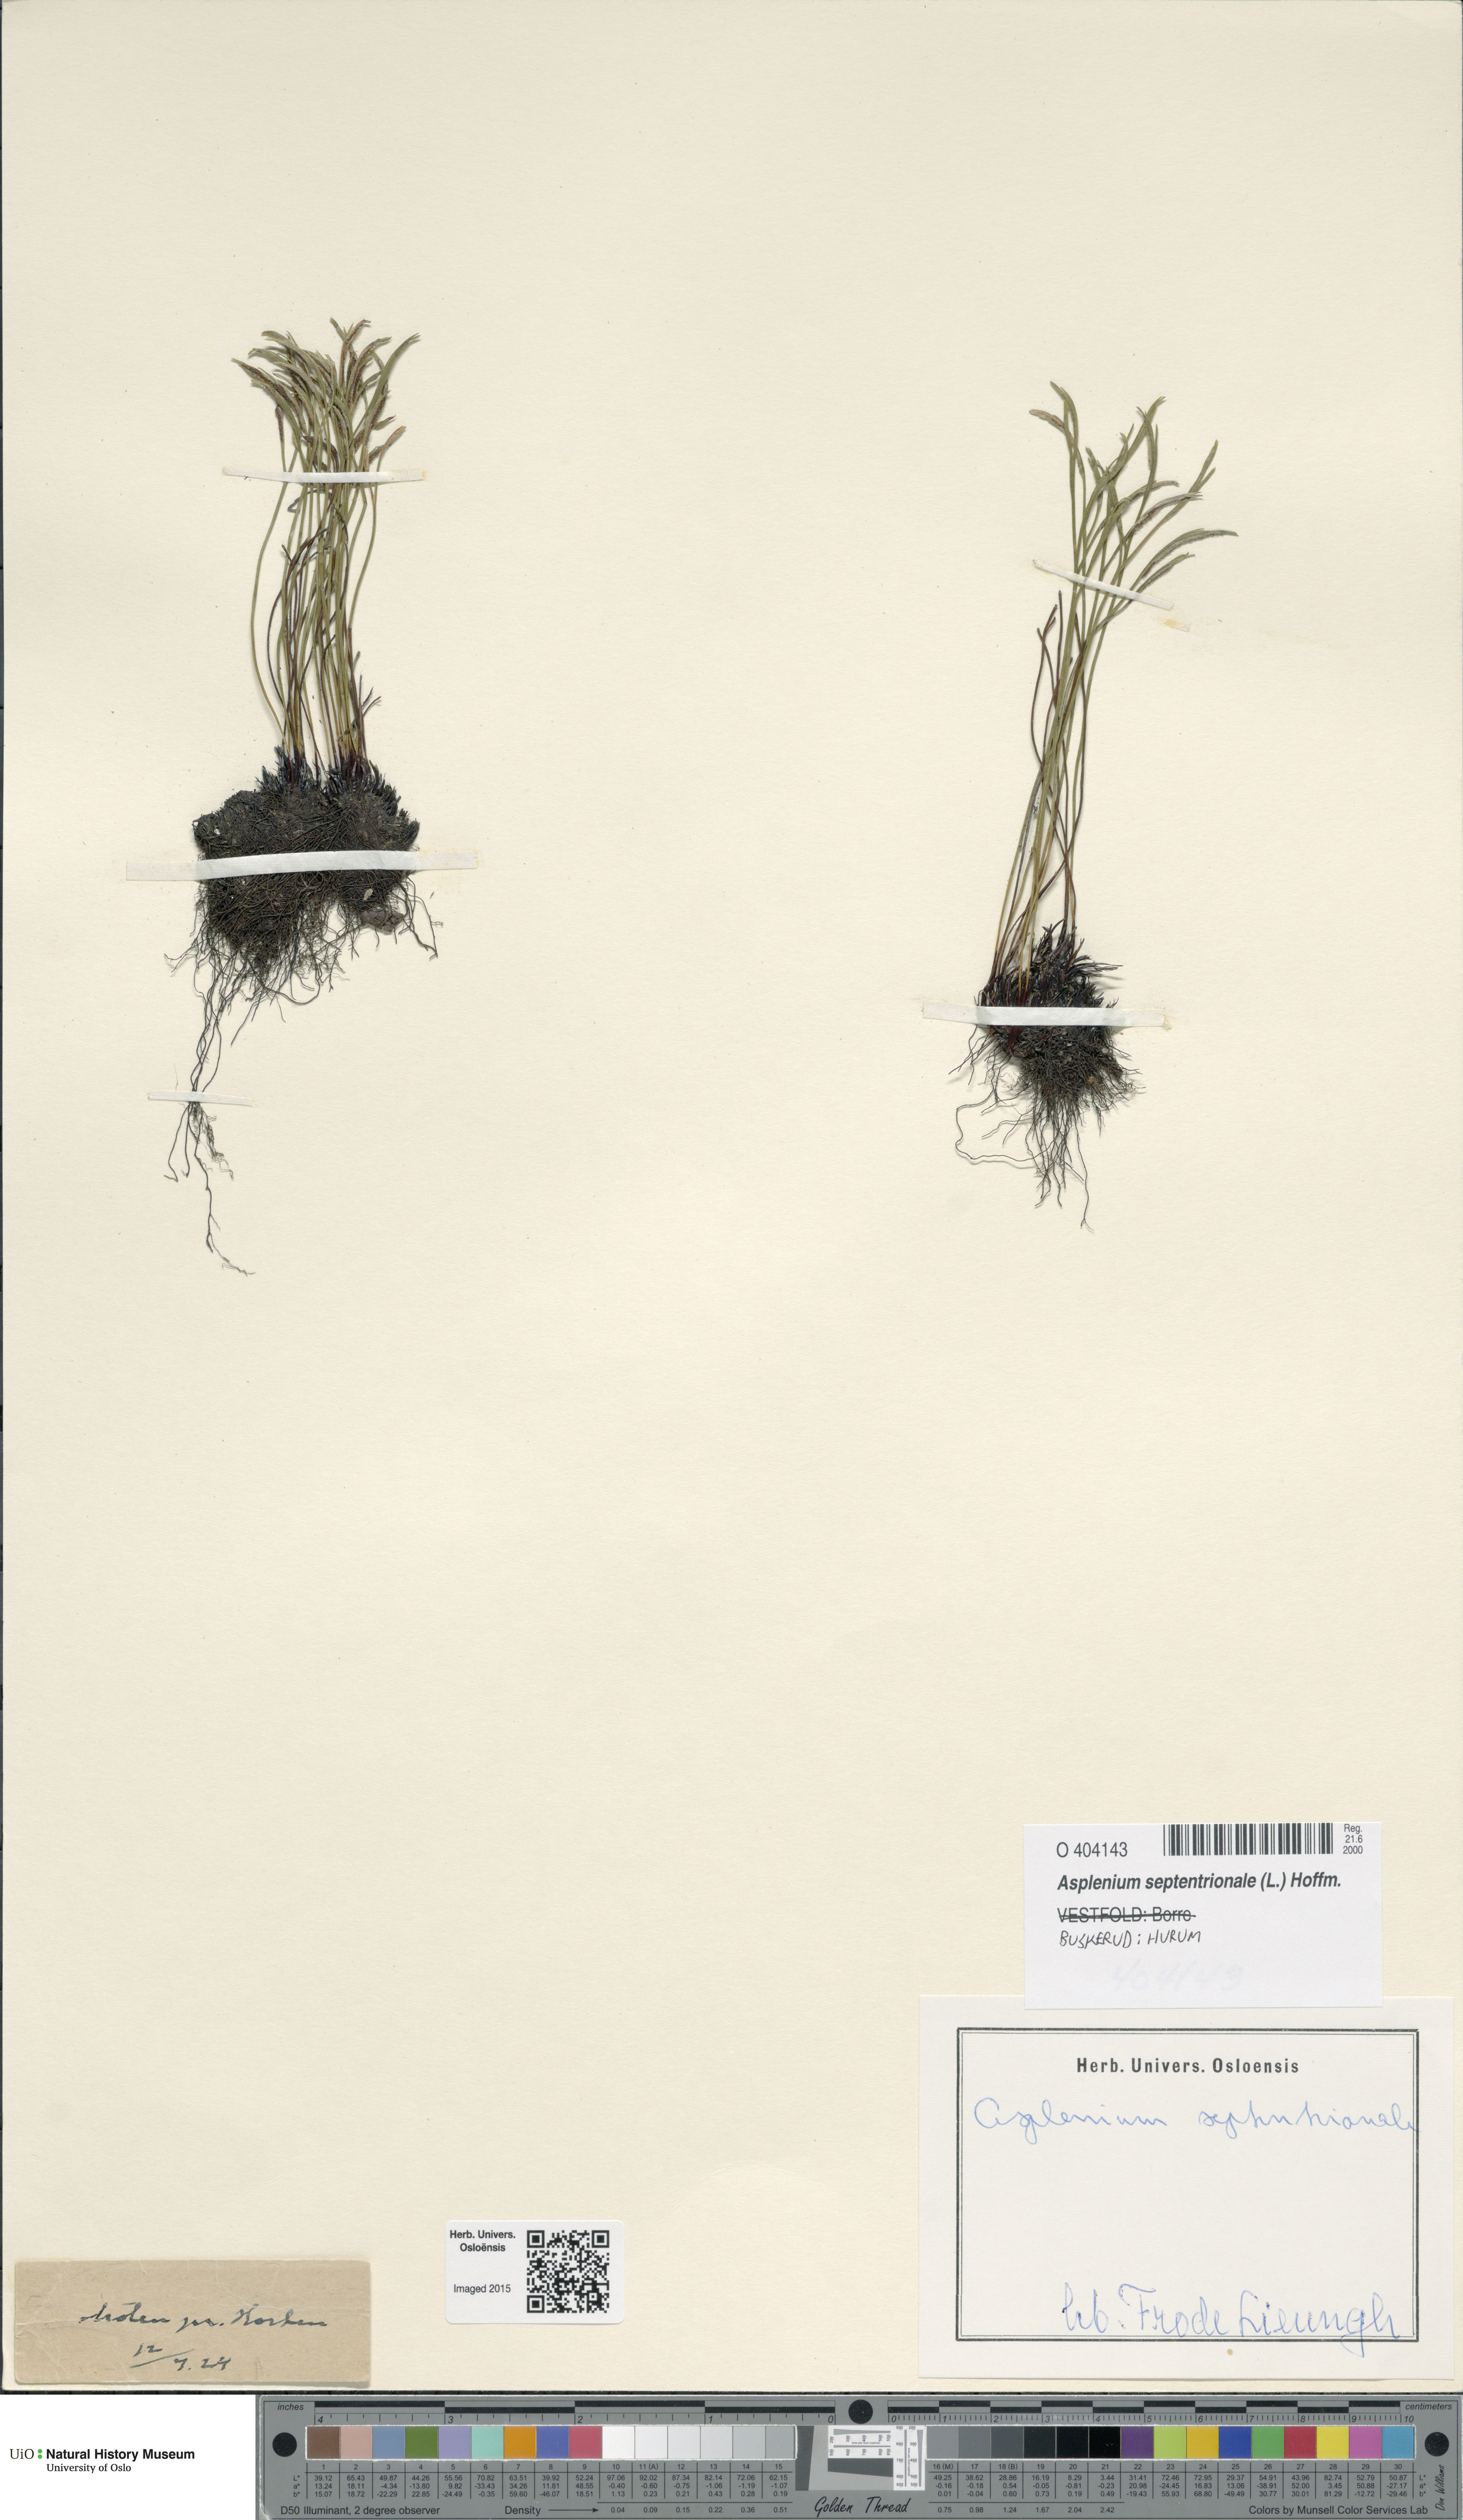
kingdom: Plantae
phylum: Tracheophyta
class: Polypodiopsida
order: Polypodiales
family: Aspleniaceae
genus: Asplenium
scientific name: Asplenium septentrionale
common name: Forked spleenwort
